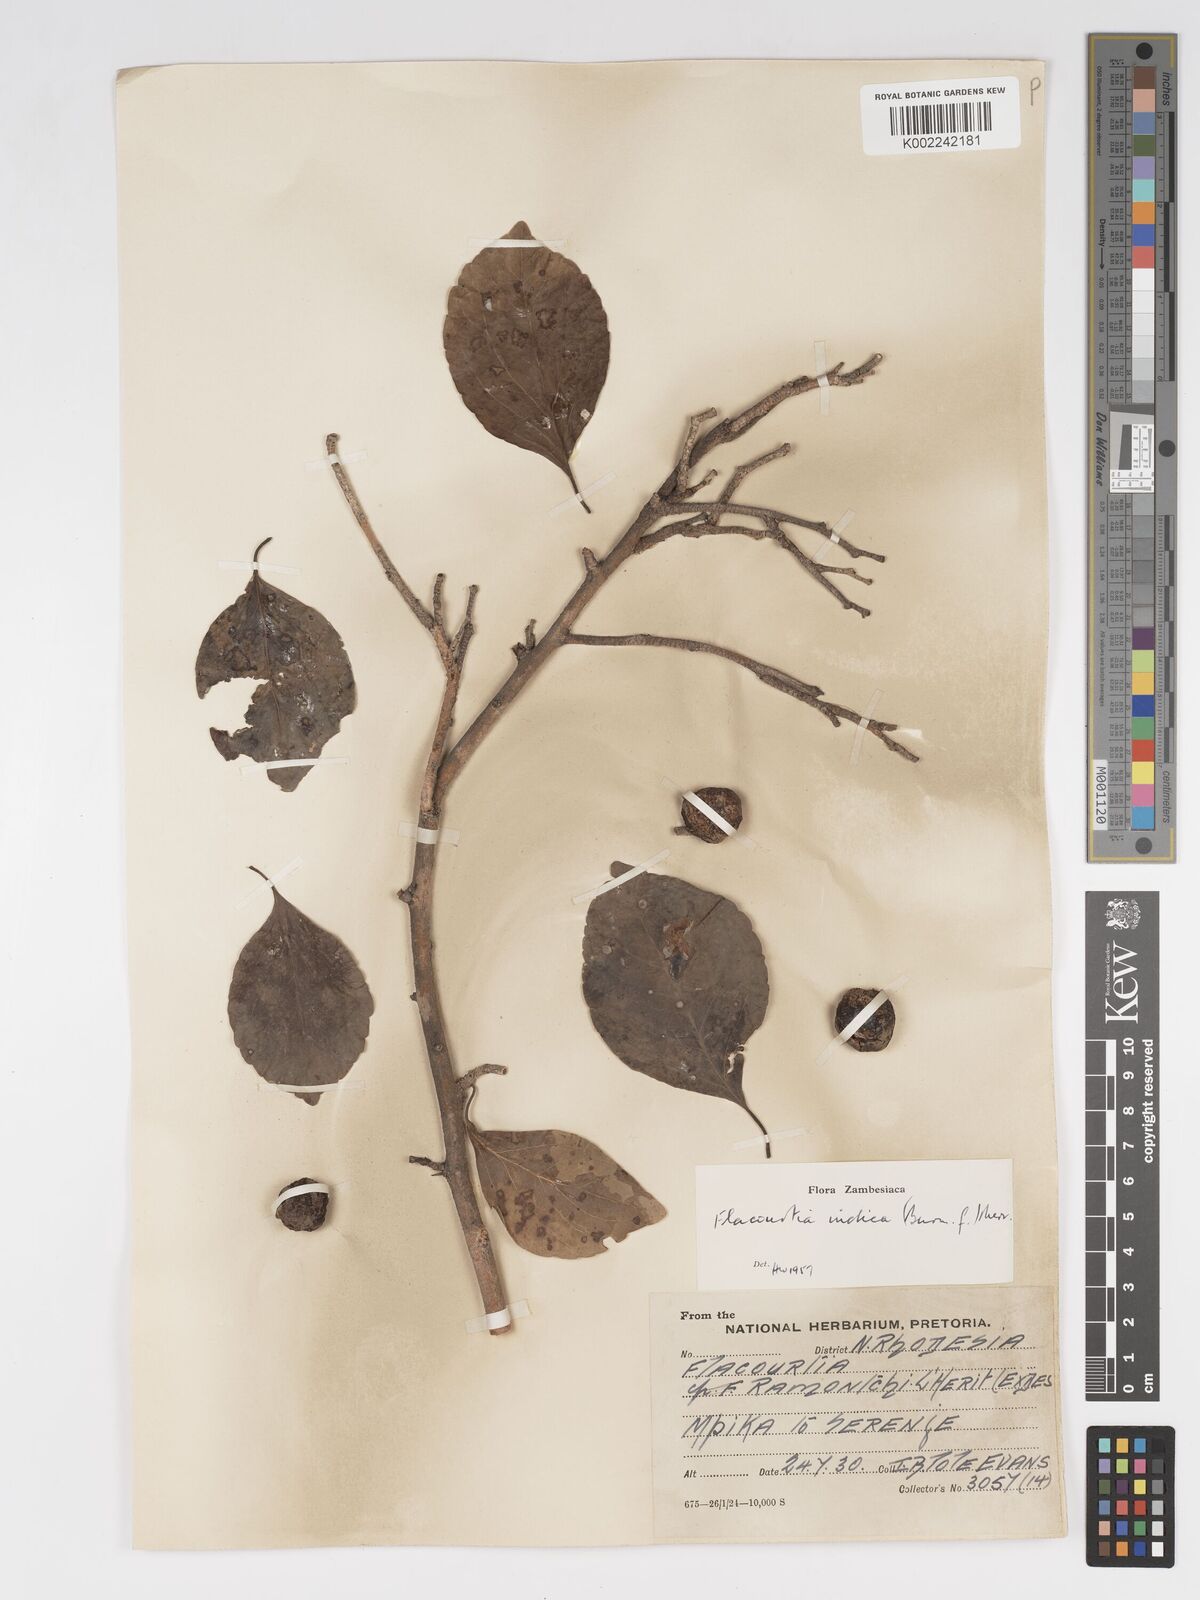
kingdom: Plantae
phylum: Tracheophyta
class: Magnoliopsida
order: Malpighiales
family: Salicaceae
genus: Flacourtia
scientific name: Flacourtia indica
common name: Governor's plum
